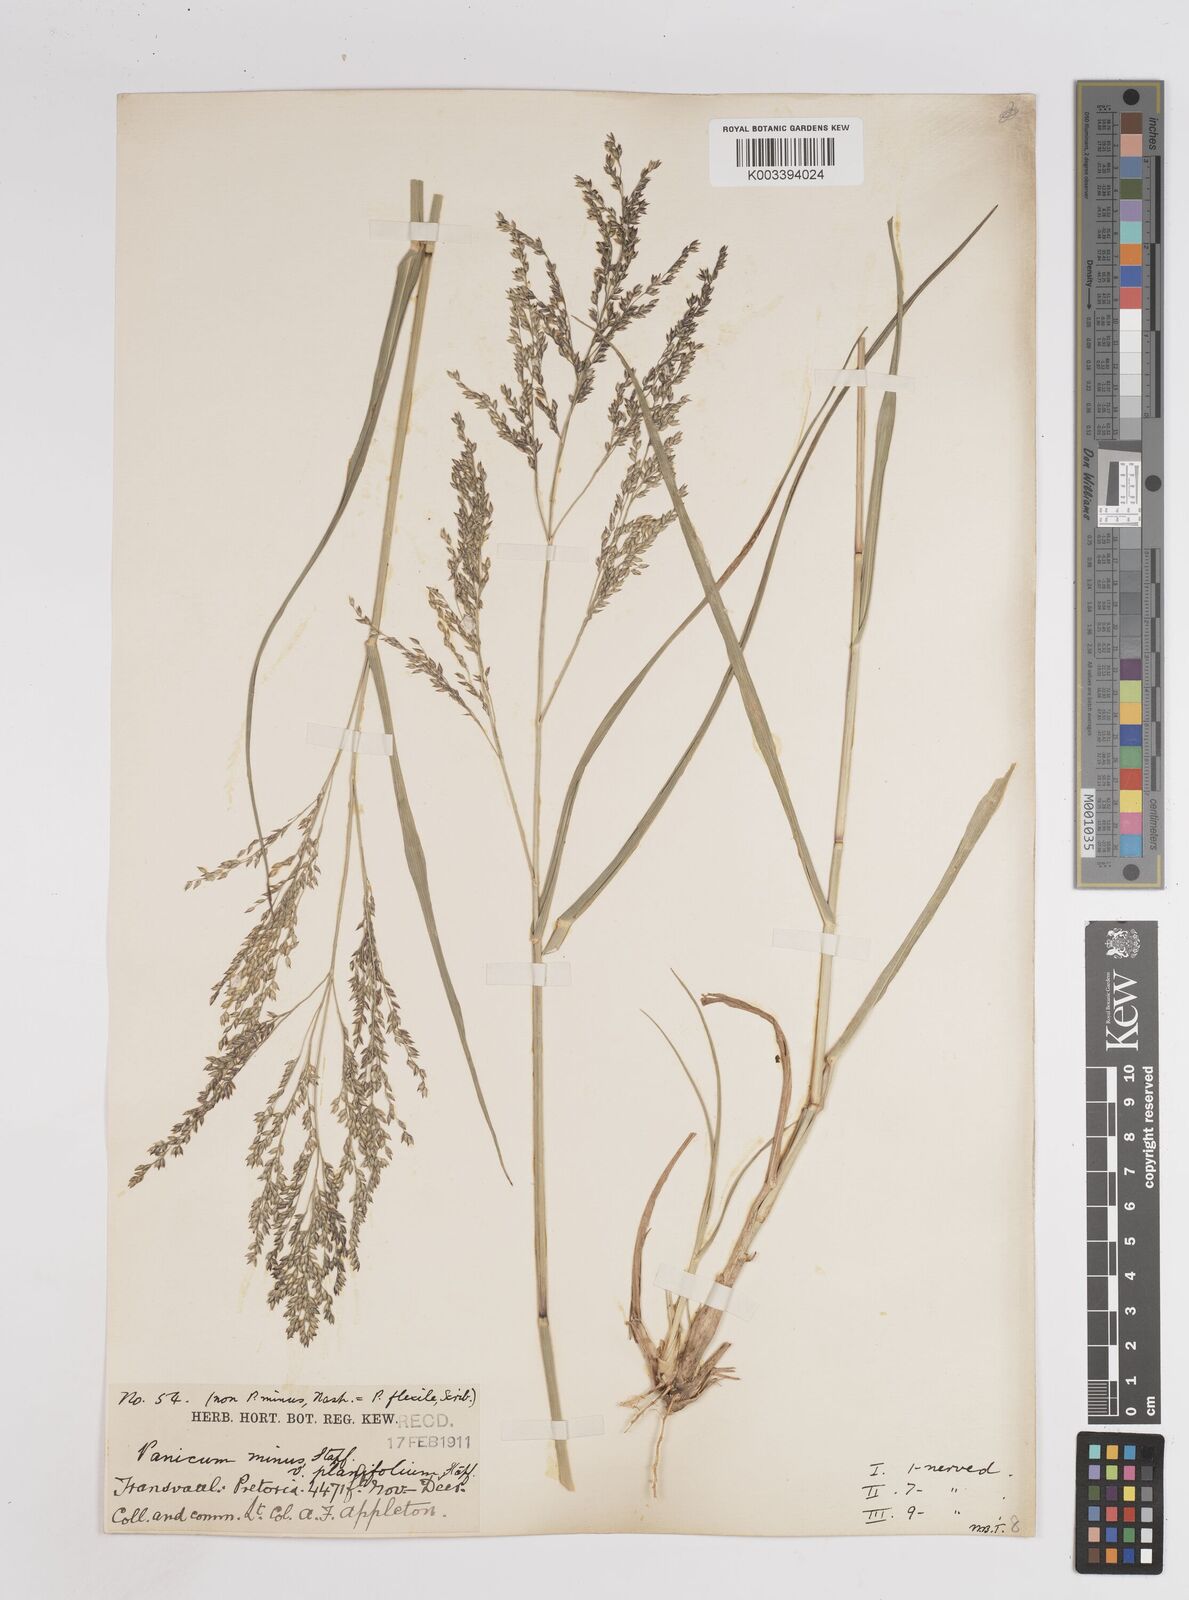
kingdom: Plantae
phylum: Tracheophyta
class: Liliopsida
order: Poales
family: Poaceae
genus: Panicum
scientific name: Panicum
